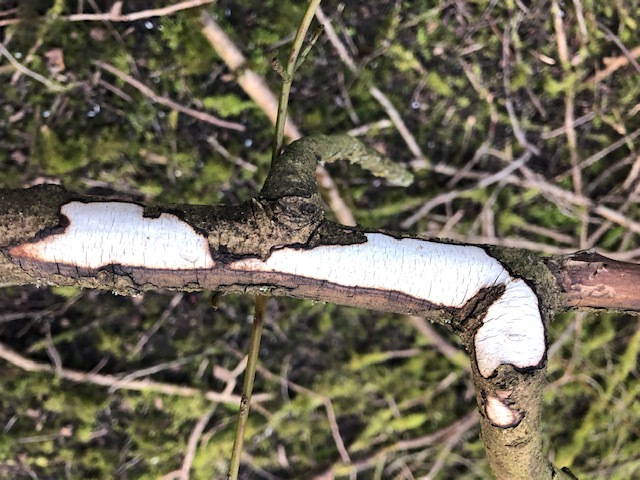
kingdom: Fungi
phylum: Basidiomycota
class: Agaricomycetes
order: Corticiales
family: Vuilleminiaceae
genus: Vuilleminia
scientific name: Vuilleminia cystidiata
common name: tjørne-barksprænger
